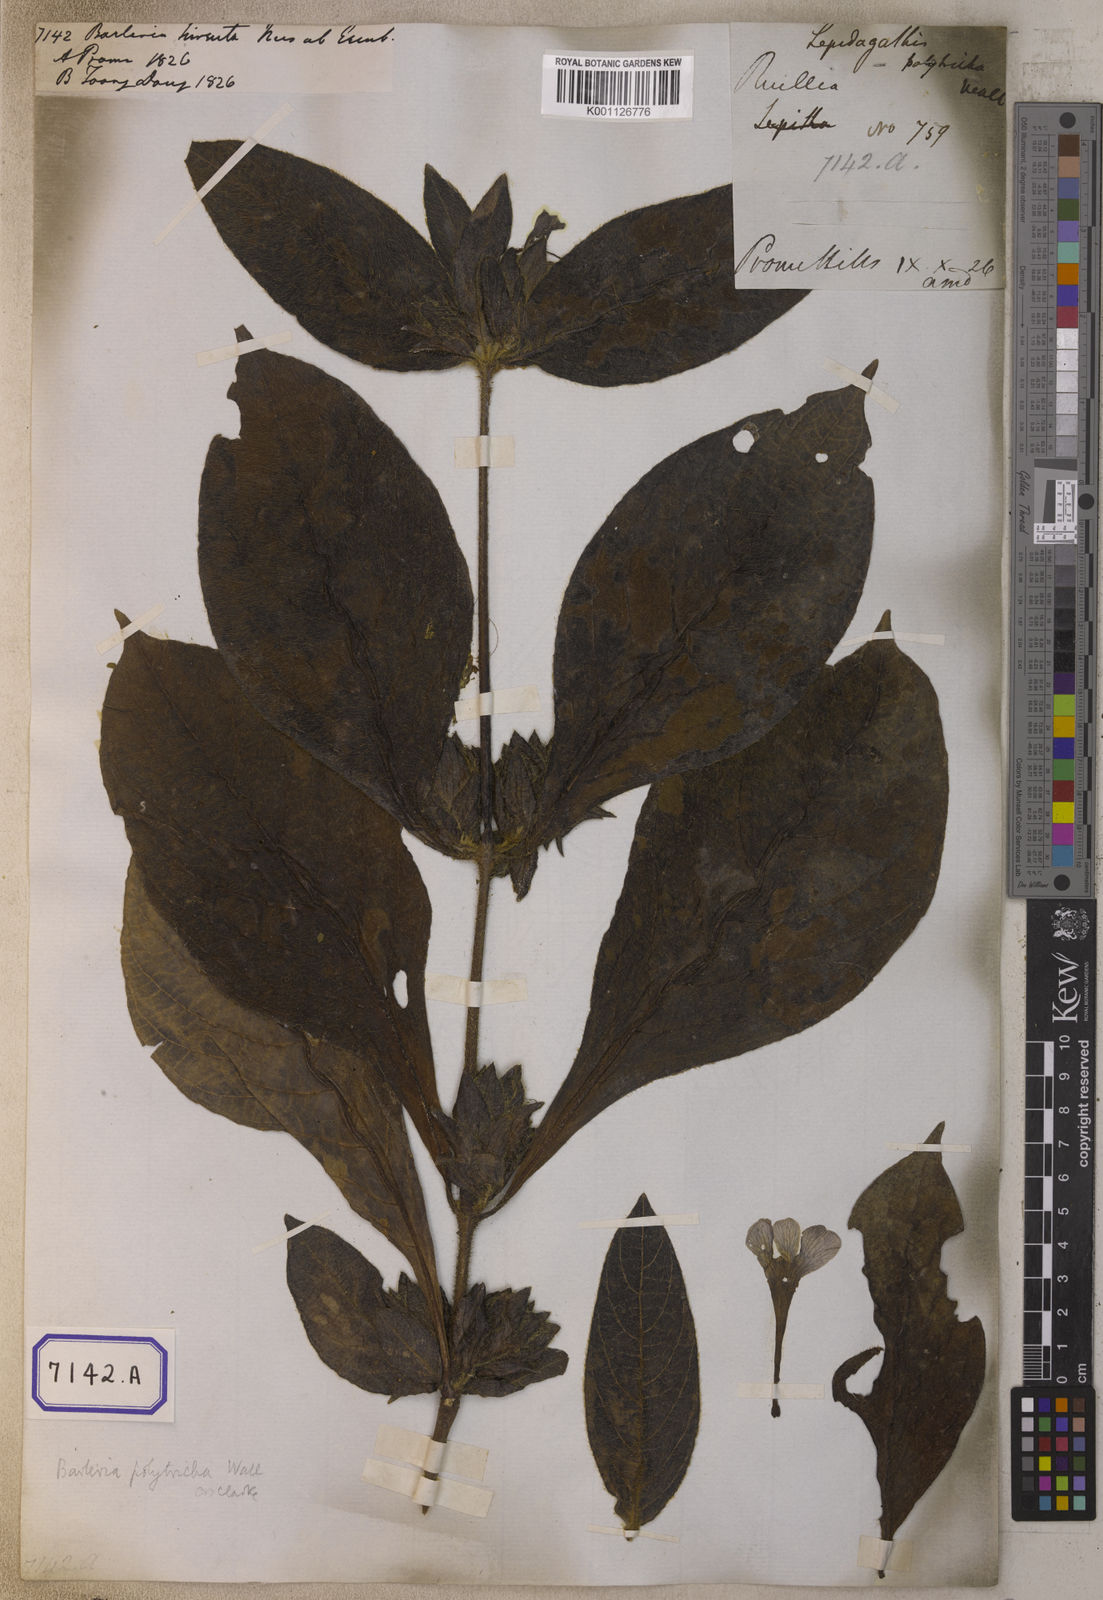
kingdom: Plantae
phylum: Tracheophyta
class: Magnoliopsida
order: Lamiales
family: Acanthaceae
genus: Barleria
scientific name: Barleria
